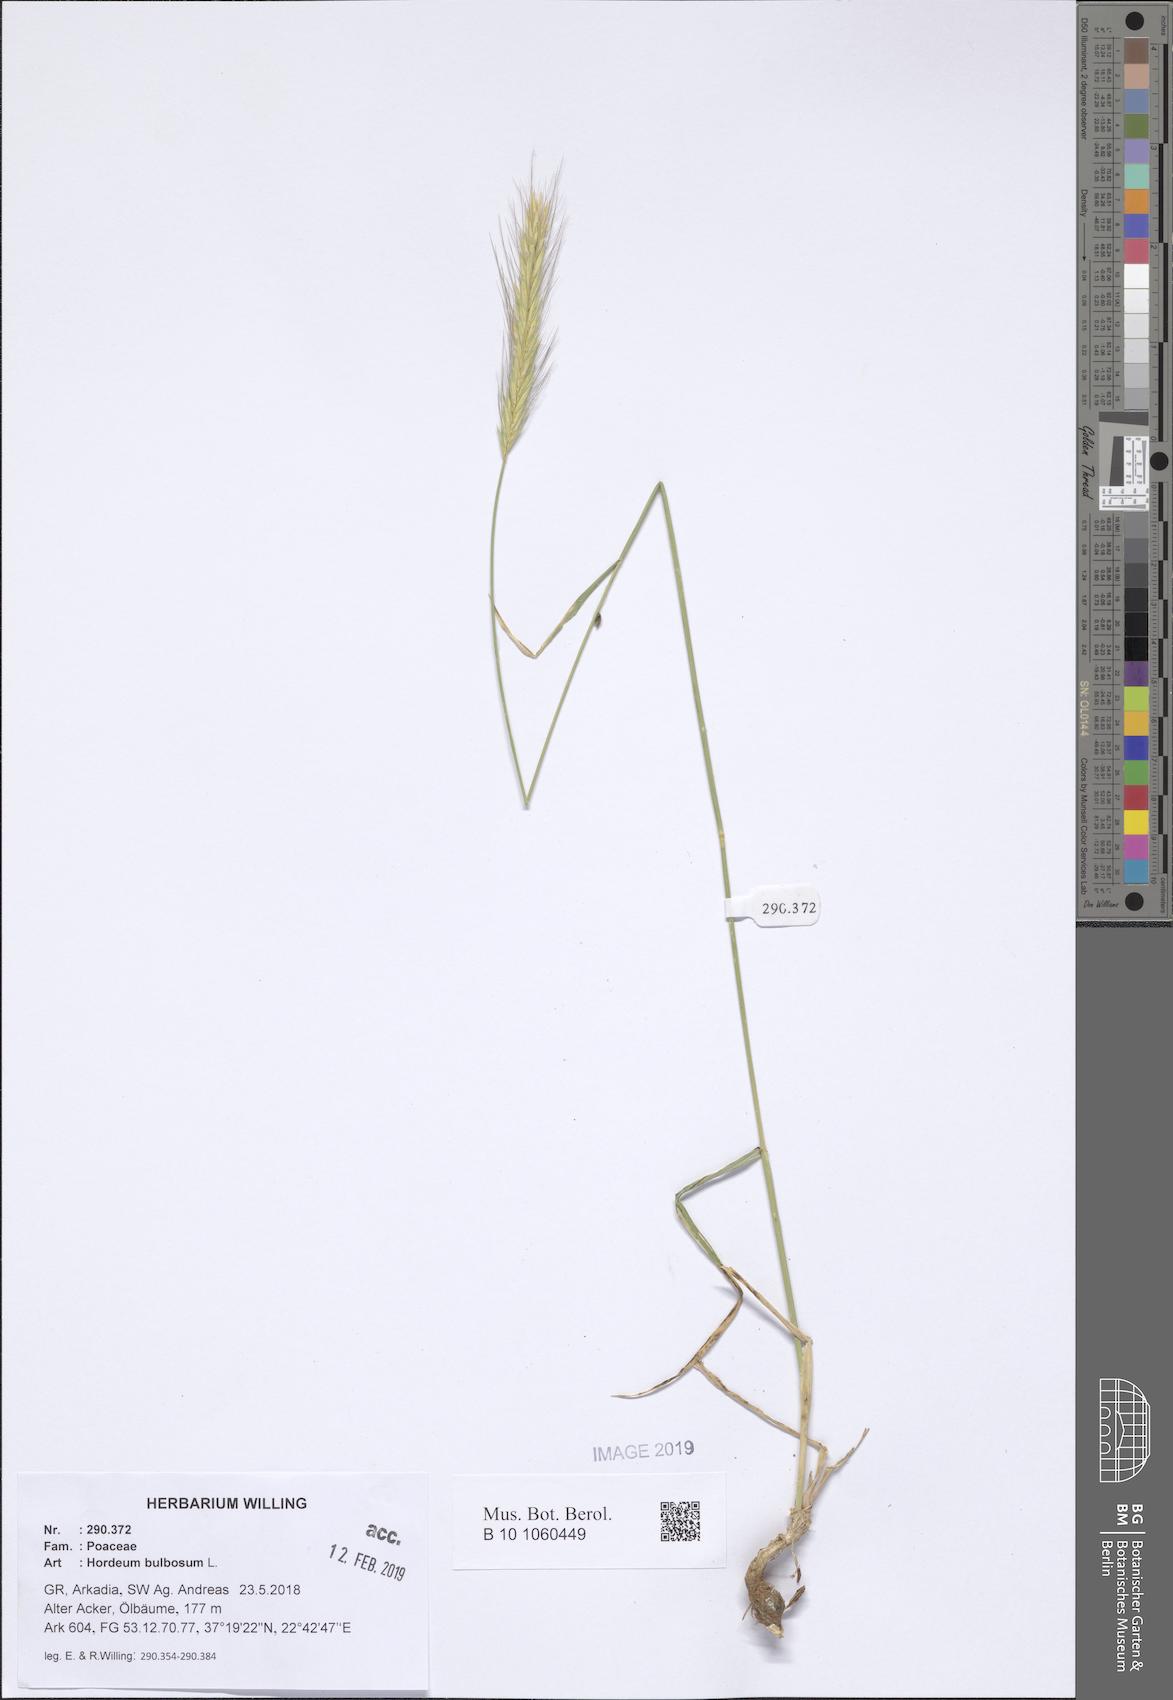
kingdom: Plantae
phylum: Tracheophyta
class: Liliopsida
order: Poales
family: Poaceae
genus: Hordeum
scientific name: Hordeum bulbosum
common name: Bulbous barley
